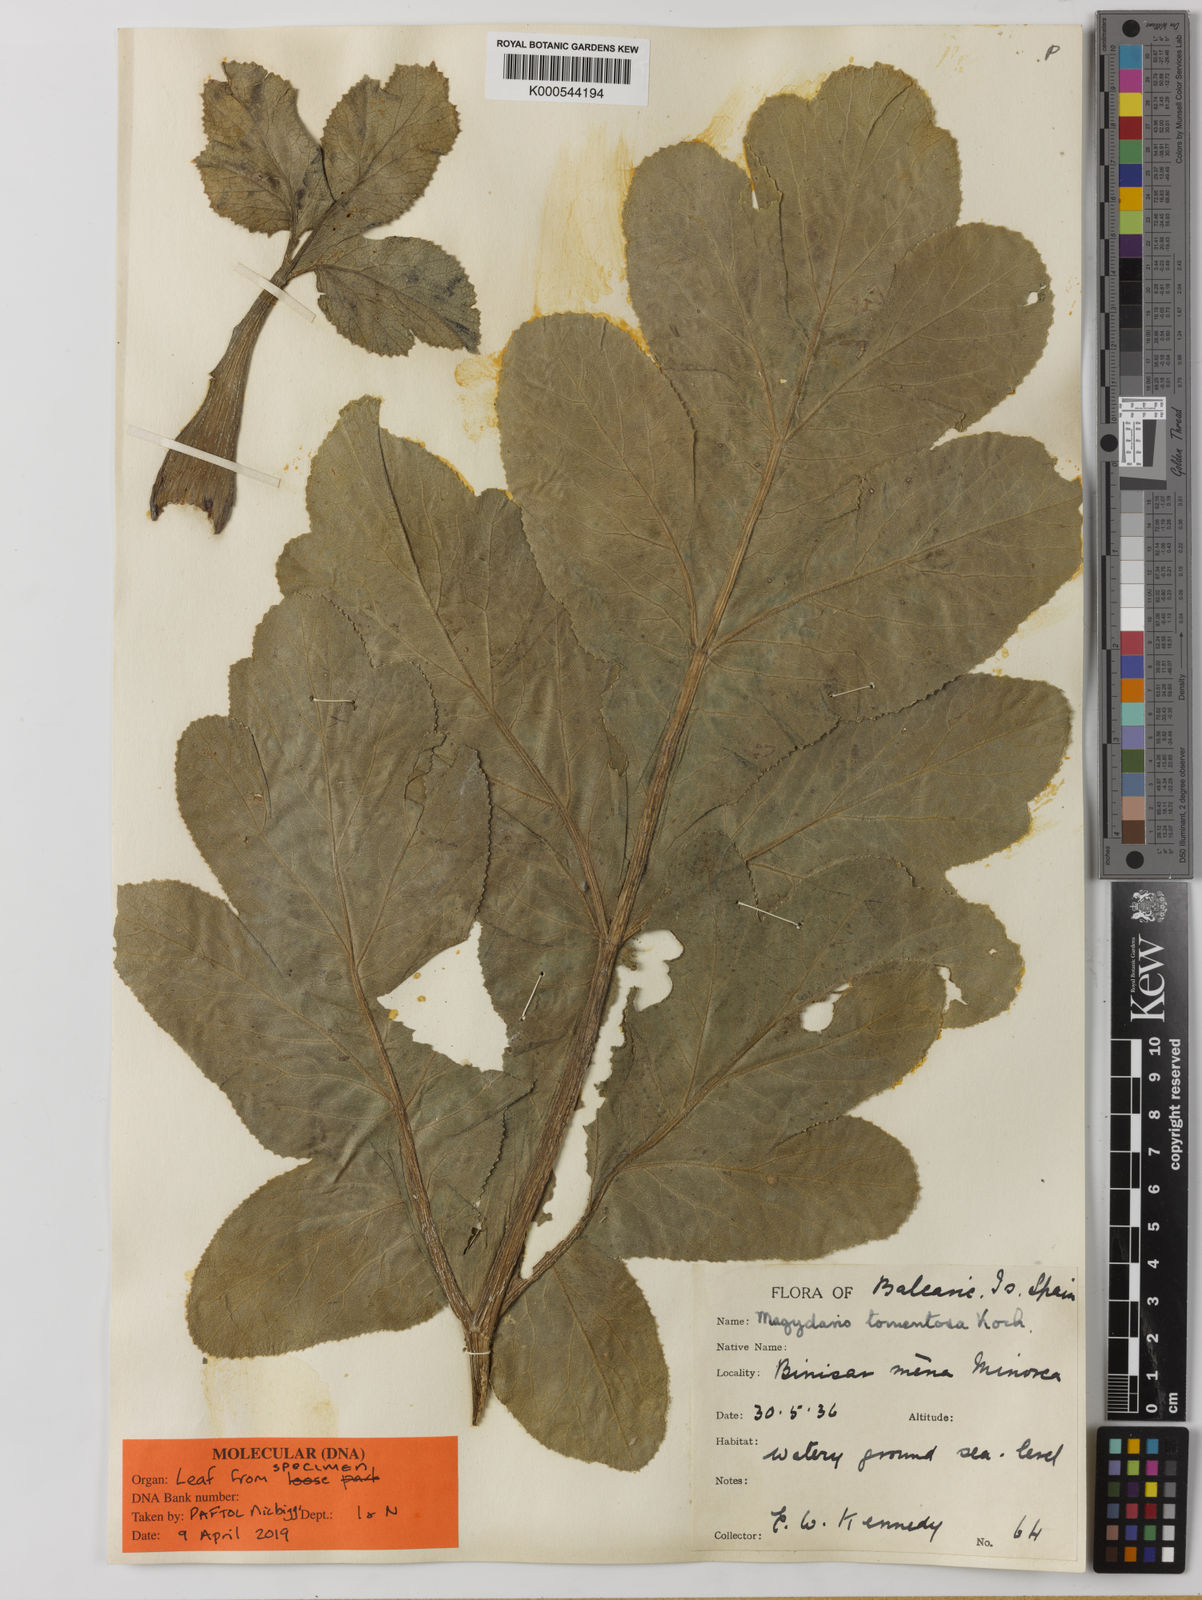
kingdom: Plantae
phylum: Tracheophyta
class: Magnoliopsida
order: Apiales
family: Apiaceae
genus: Magydaris
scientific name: Magydaris pastinacea
